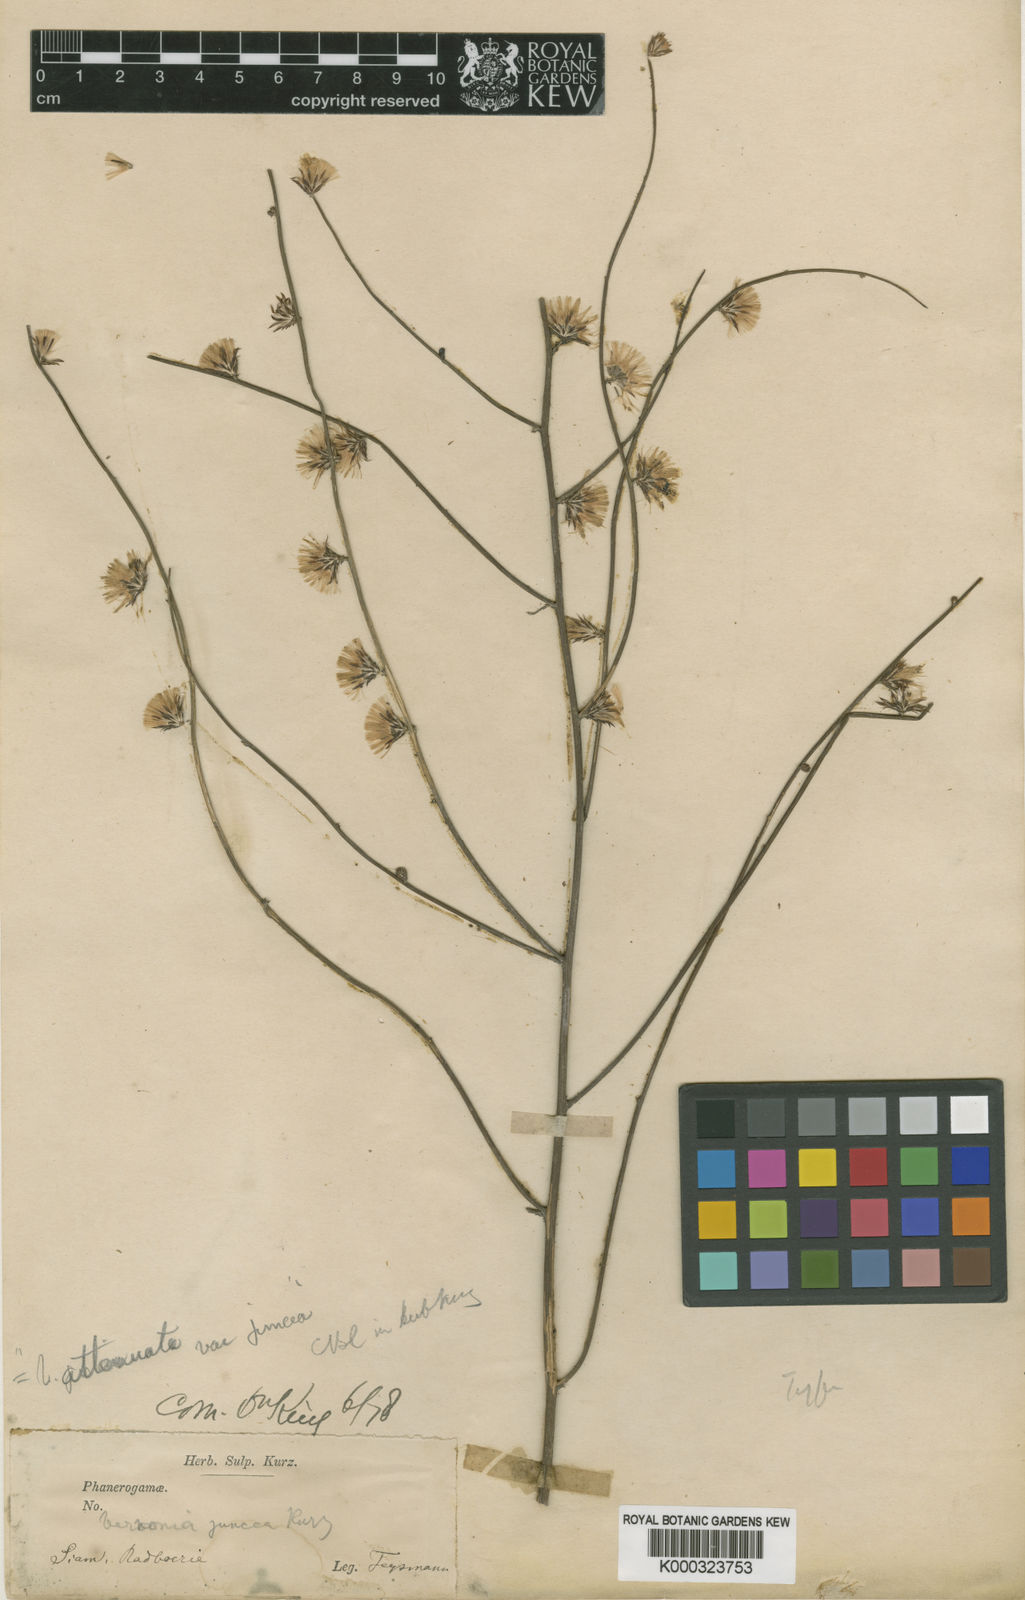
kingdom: Plantae
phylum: Tracheophyta
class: Magnoliopsida
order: Asterales
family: Asteraceae
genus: Vernonia
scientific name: Vernonia
